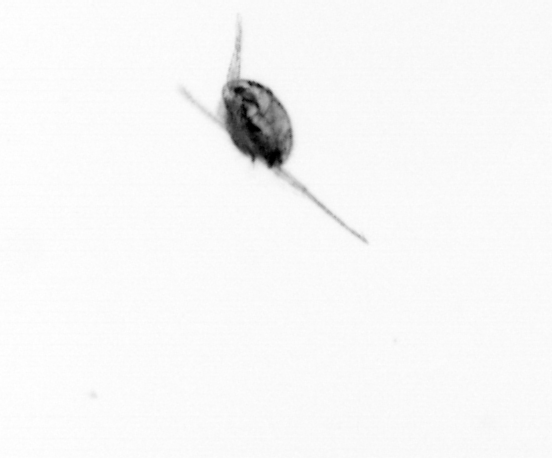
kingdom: Animalia
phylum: Arthropoda
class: Copepoda
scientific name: Copepoda
